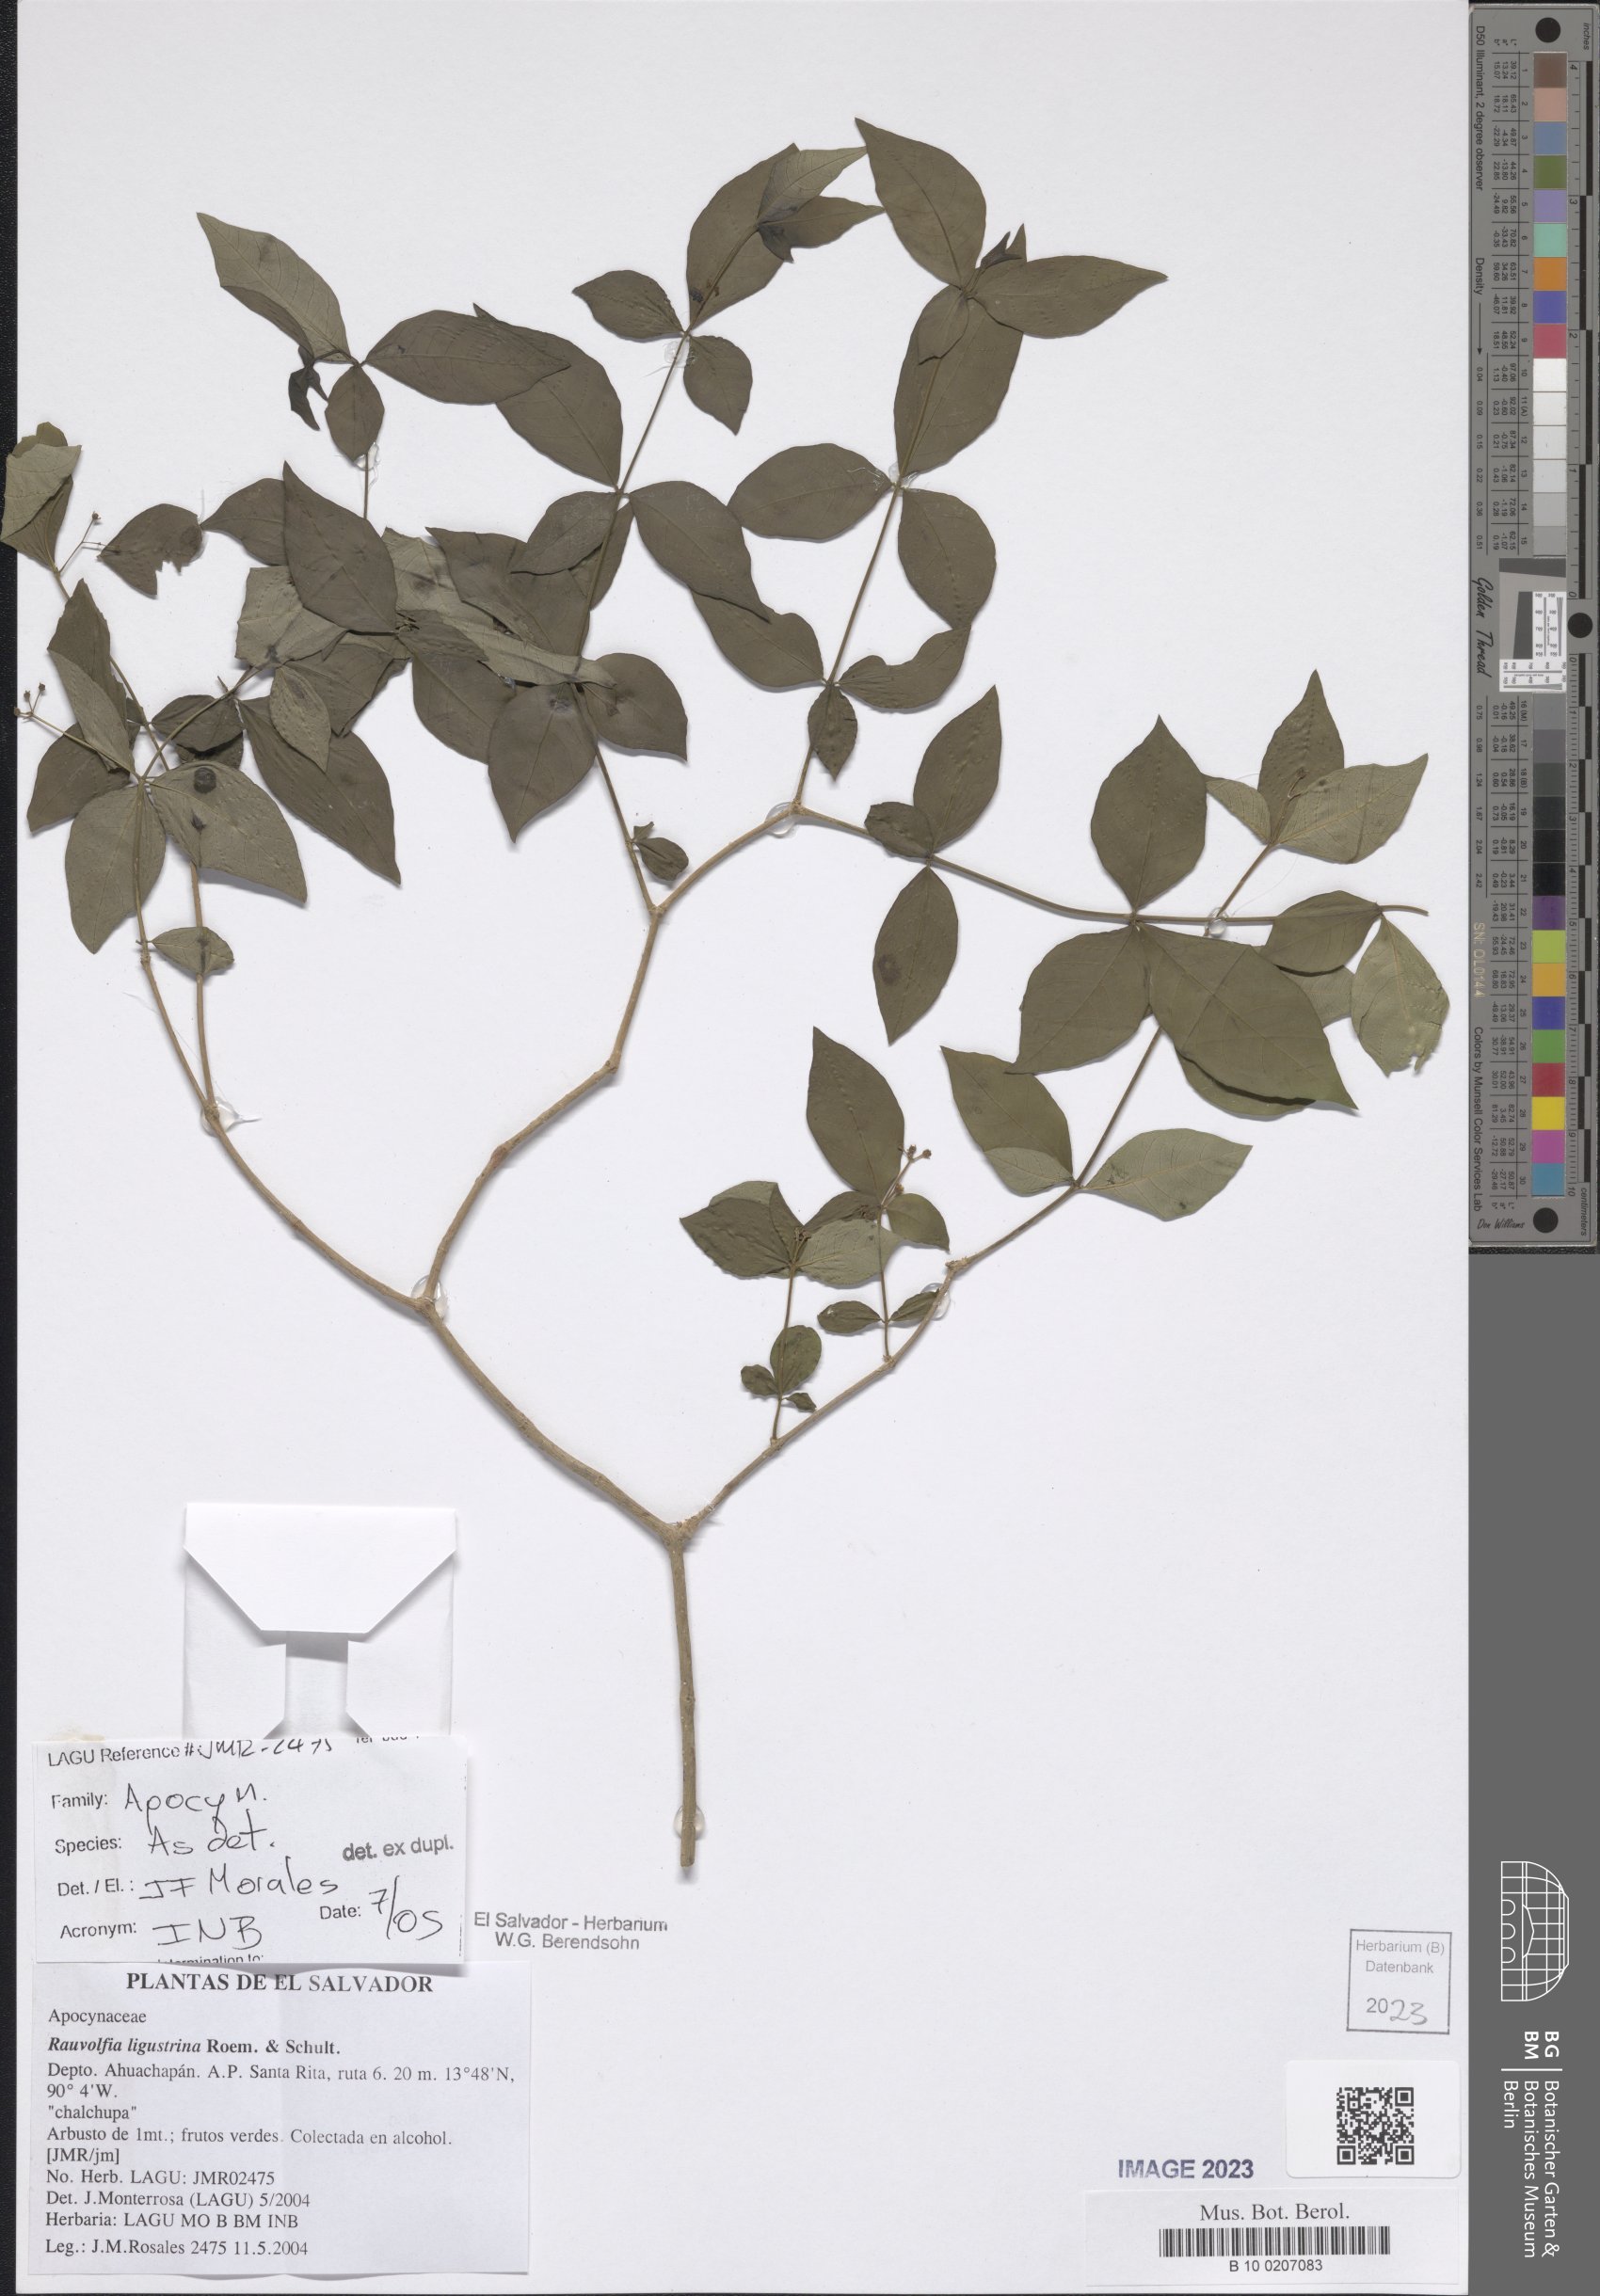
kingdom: Plantae
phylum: Tracheophyta
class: Magnoliopsida
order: Gentianales
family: Apocynaceae
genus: Rauvolfia
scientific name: Rauvolfia ligustrina
